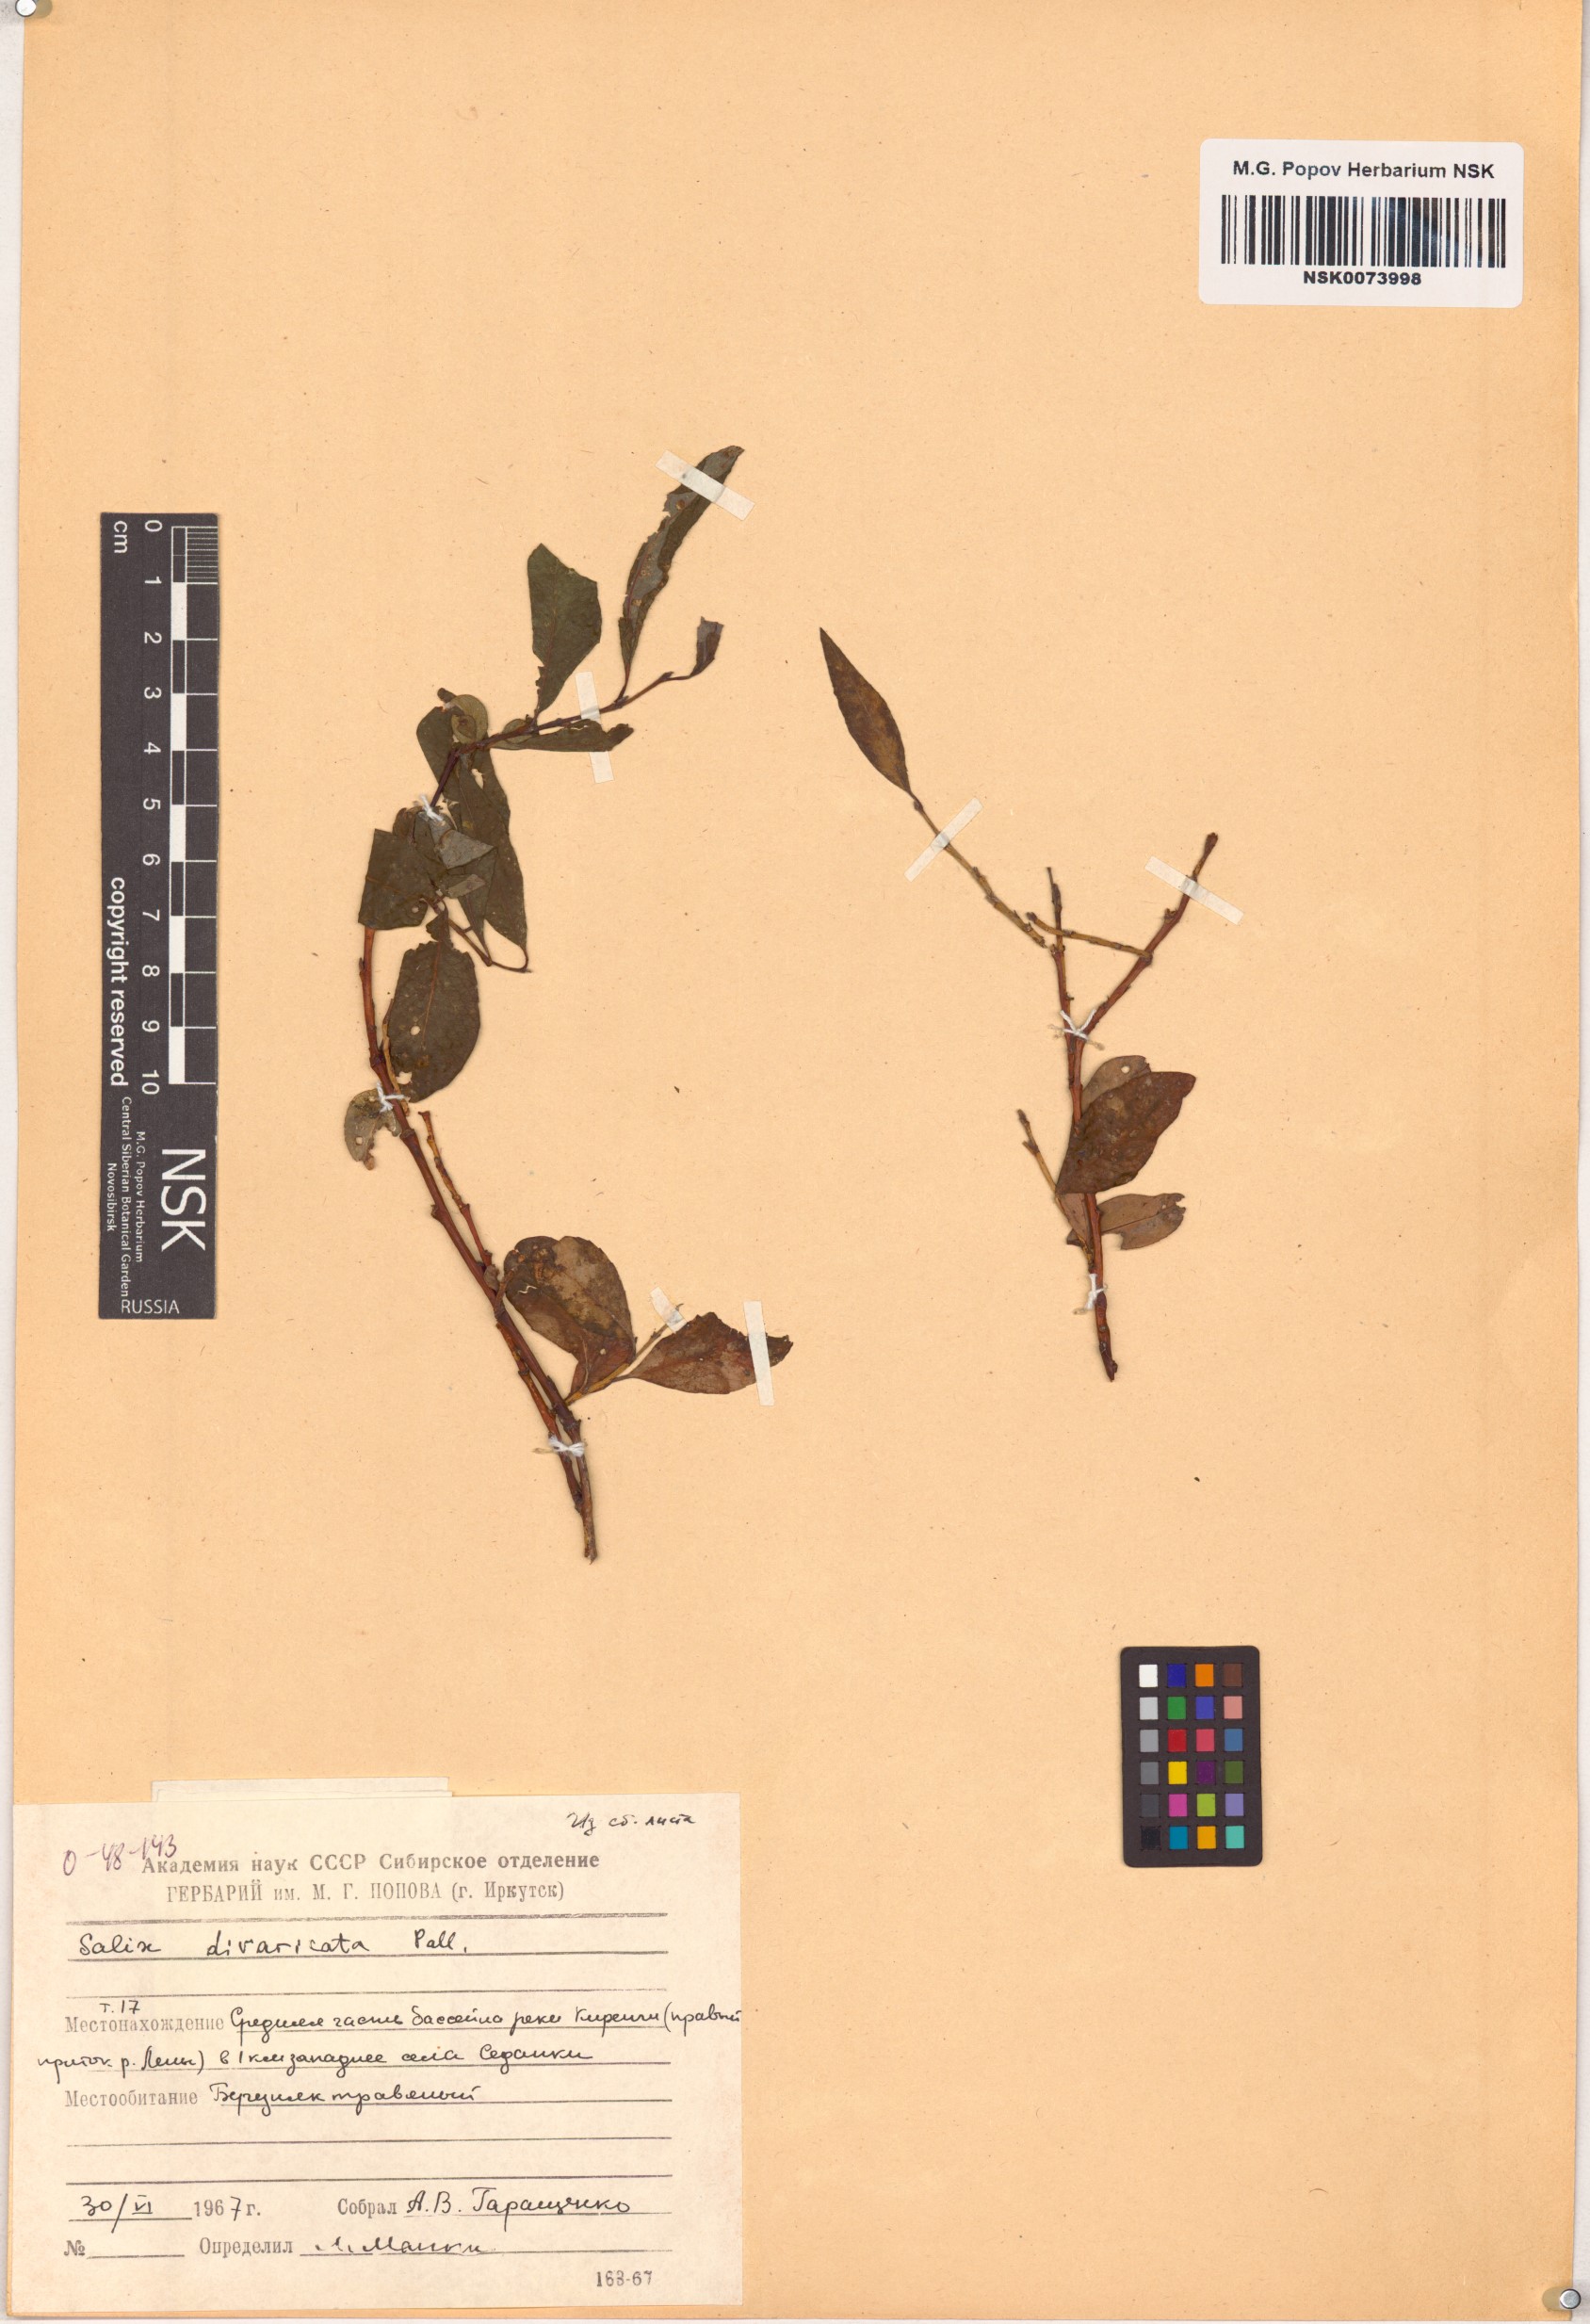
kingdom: Plantae
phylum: Tracheophyta
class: Magnoliopsida
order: Malpighiales
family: Salicaceae
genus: Salix
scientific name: Salix divaricata
